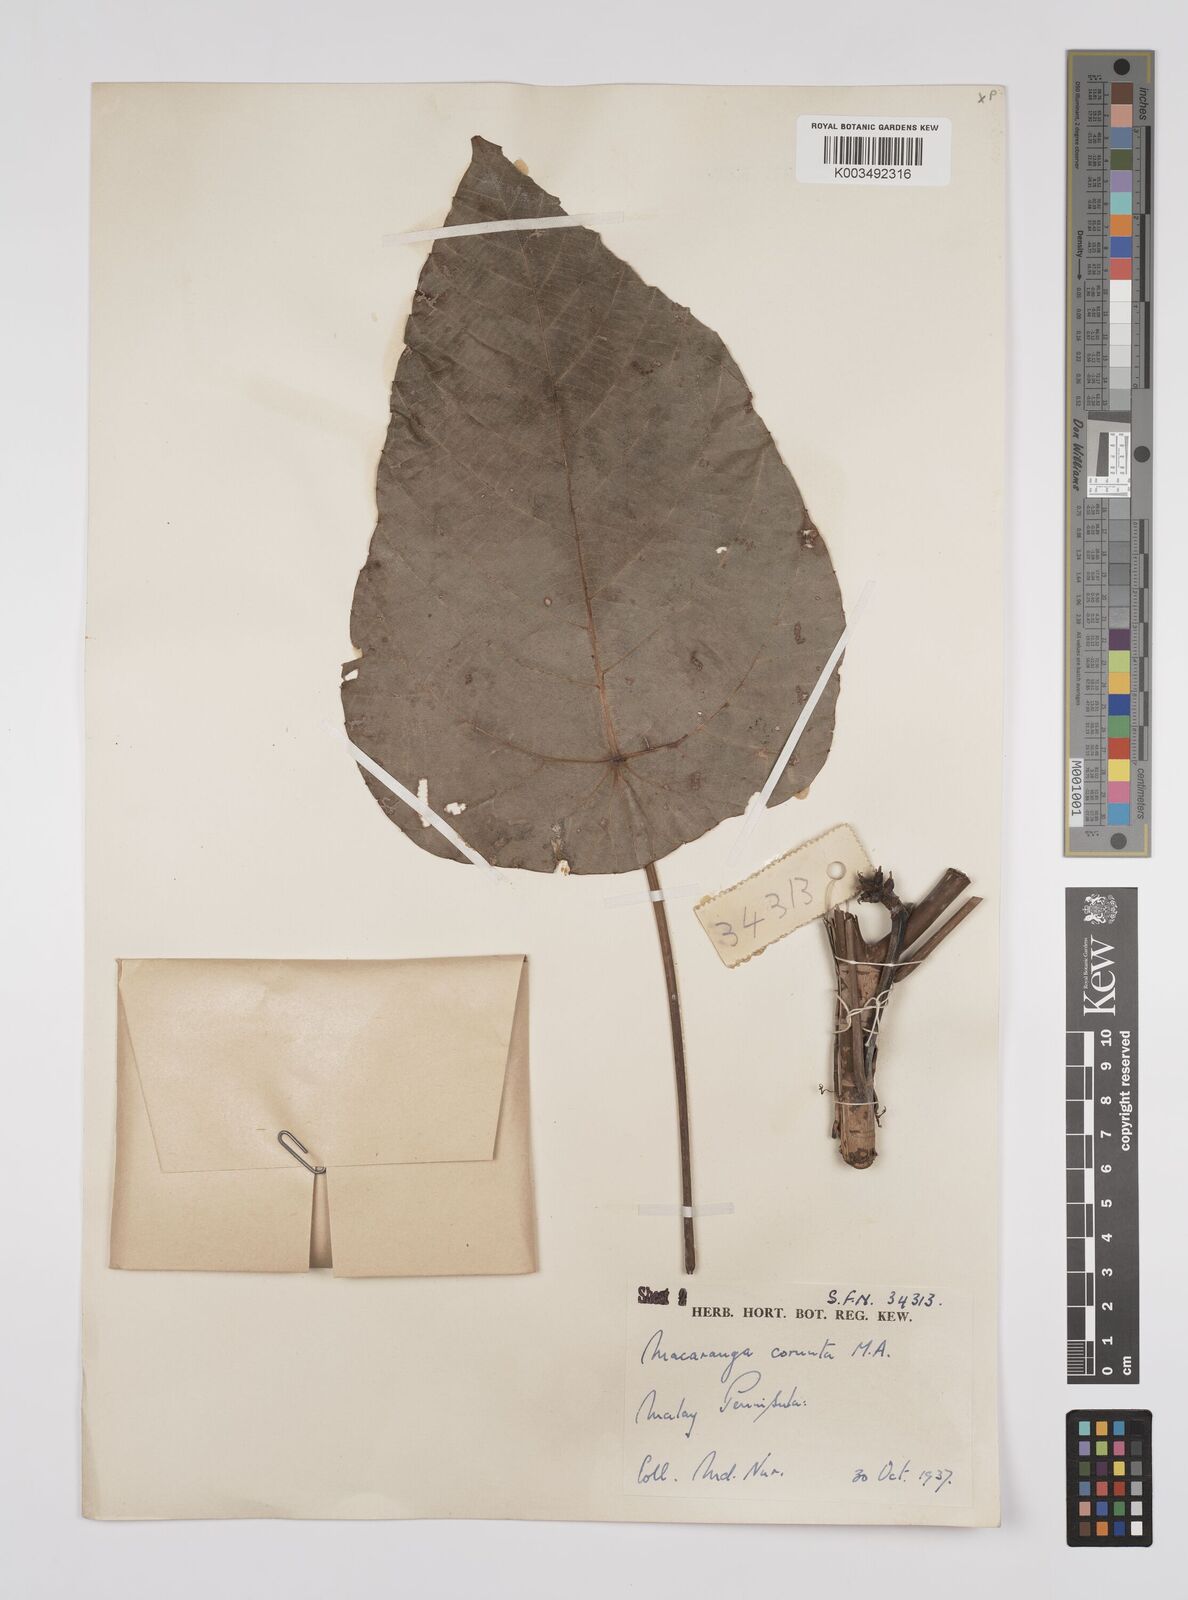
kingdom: Plantae
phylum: Tracheophyta
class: Magnoliopsida
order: Malpighiales
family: Euphorbiaceae
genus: Macaranga
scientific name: Macaranga hullettii
